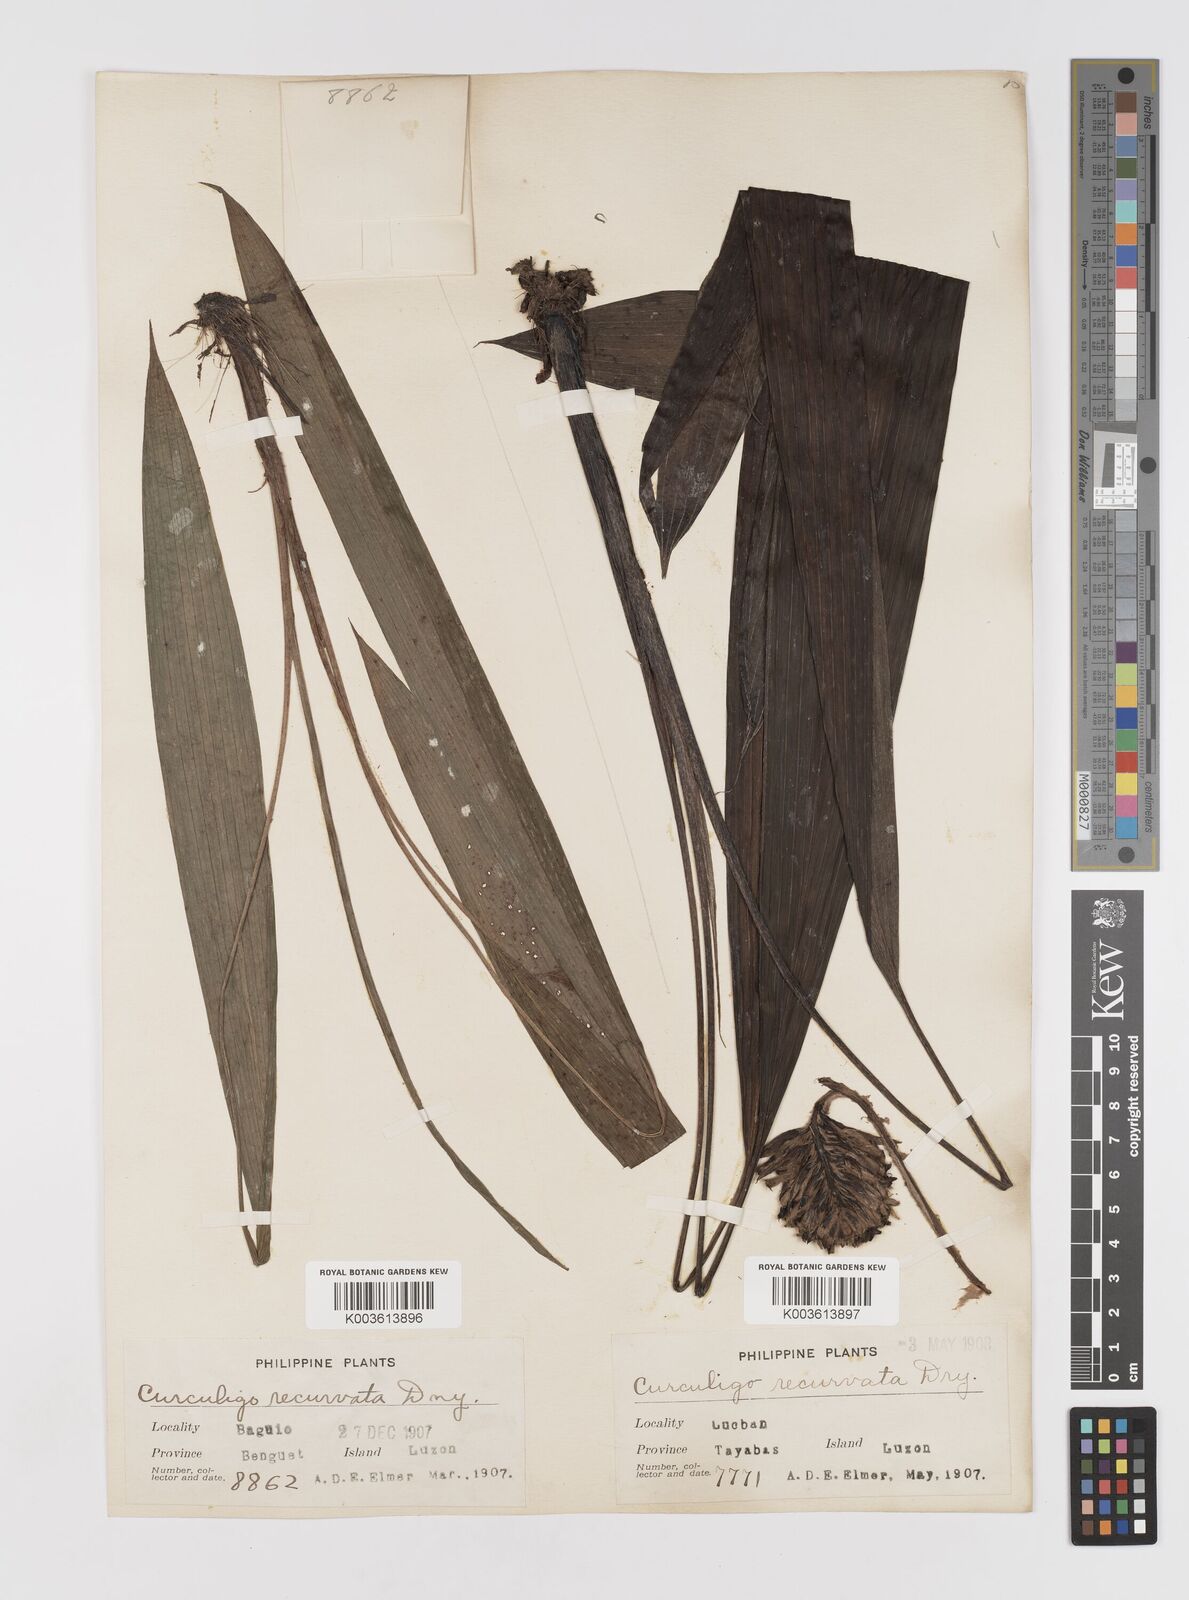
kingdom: Plantae
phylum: Tracheophyta
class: Liliopsida
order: Asparagales
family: Hypoxidaceae
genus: Curculigo
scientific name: Curculigo capitulata
